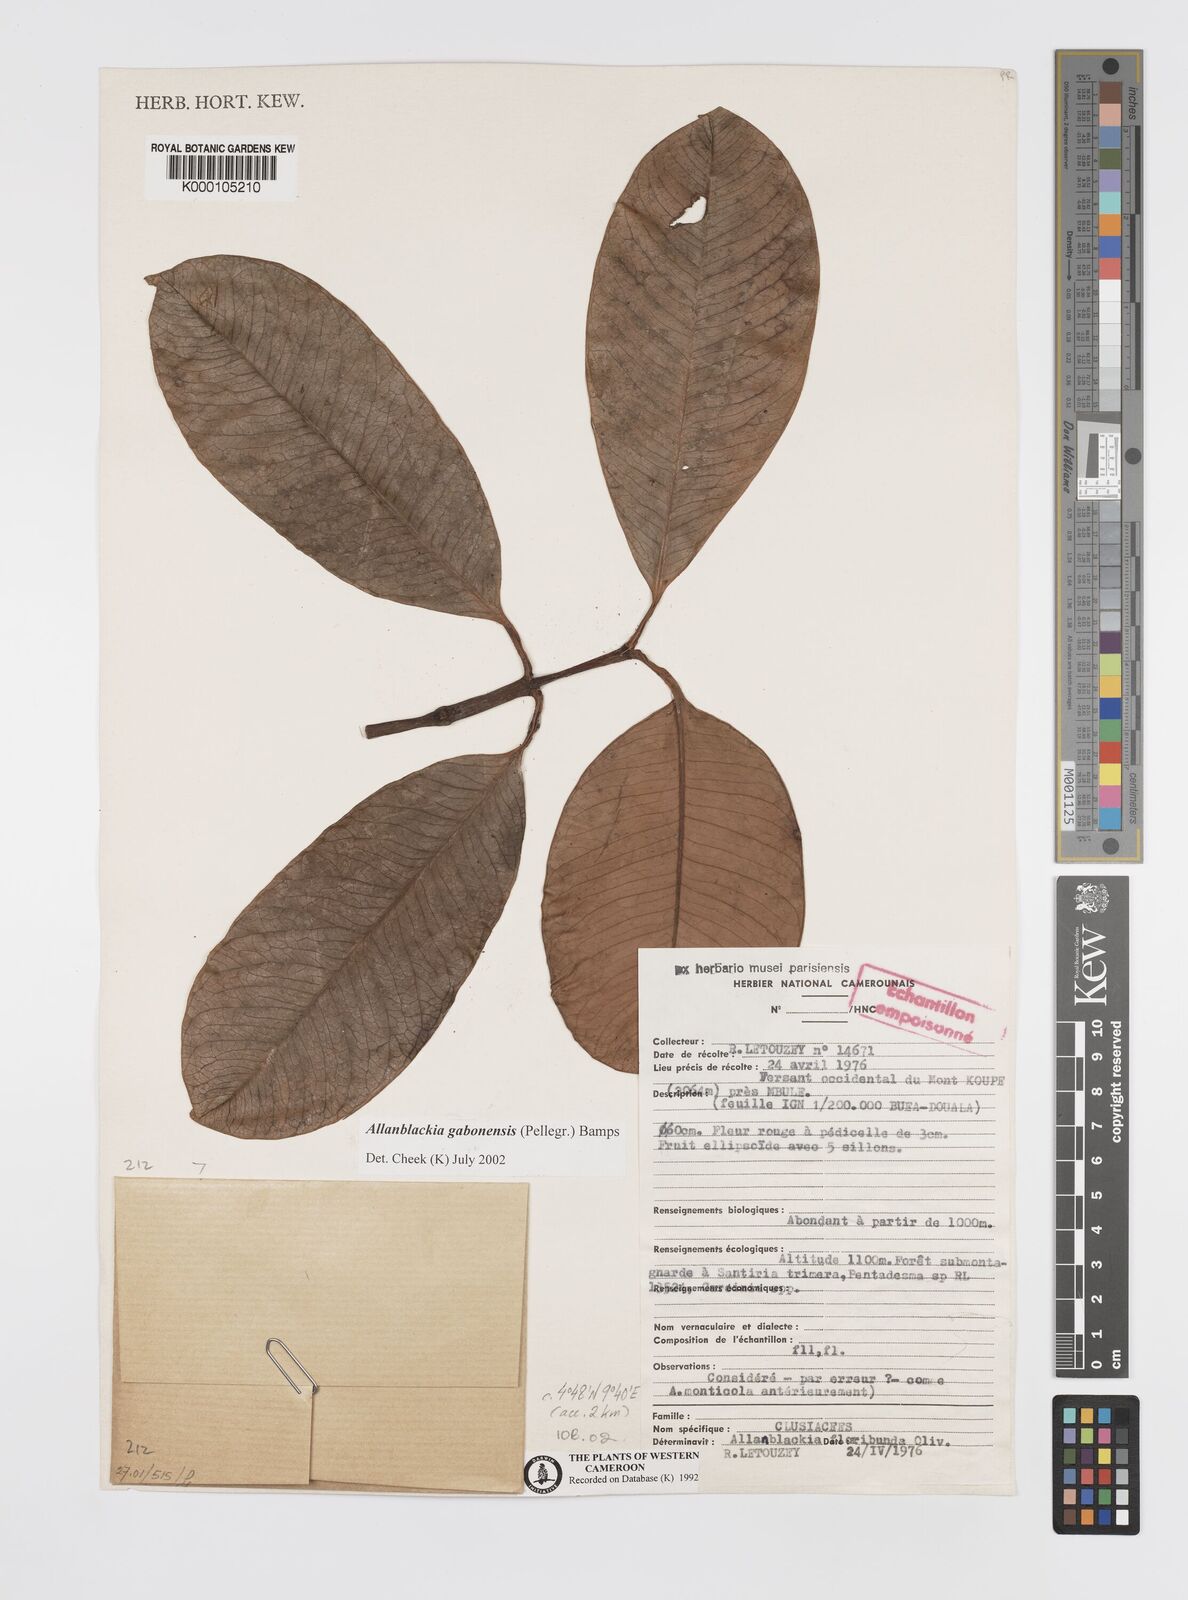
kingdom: Plantae
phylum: Tracheophyta
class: Magnoliopsida
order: Malpighiales
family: Clusiaceae
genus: Allanblackia
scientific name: Allanblackia gabonensis
